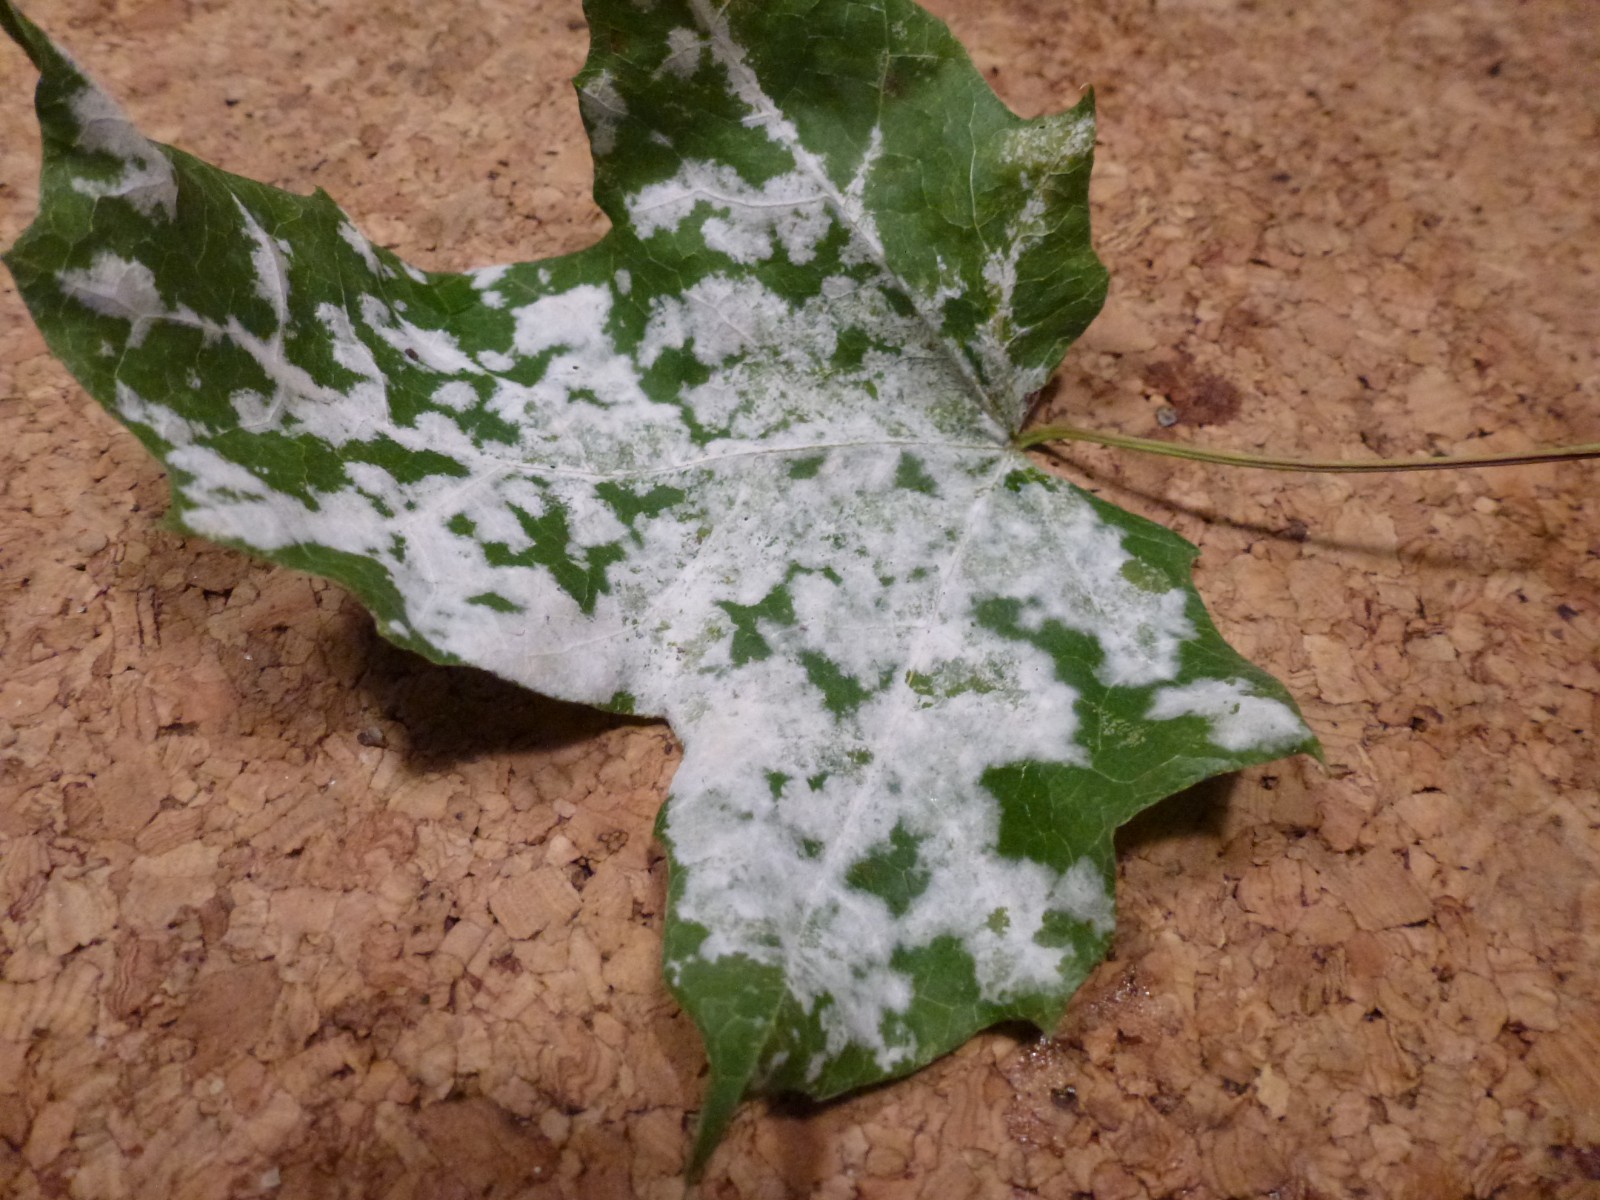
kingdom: Fungi
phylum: Ascomycota
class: Leotiomycetes
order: Helotiales
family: Erysiphaceae
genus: Sawadaea
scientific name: Sawadaea
